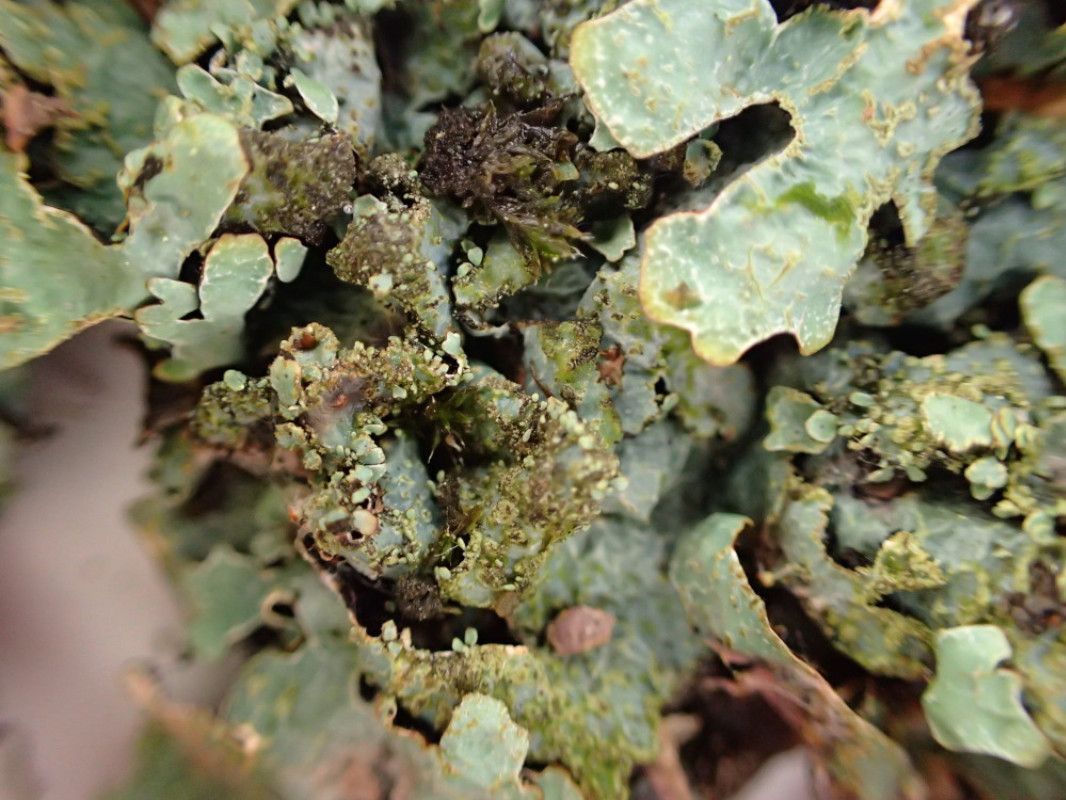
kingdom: Fungi
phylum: Ascomycota
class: Lecanoromycetes
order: Lecanorales
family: Parmeliaceae
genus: Parmelia
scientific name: Parmelia sulcata
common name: rynket skållav
